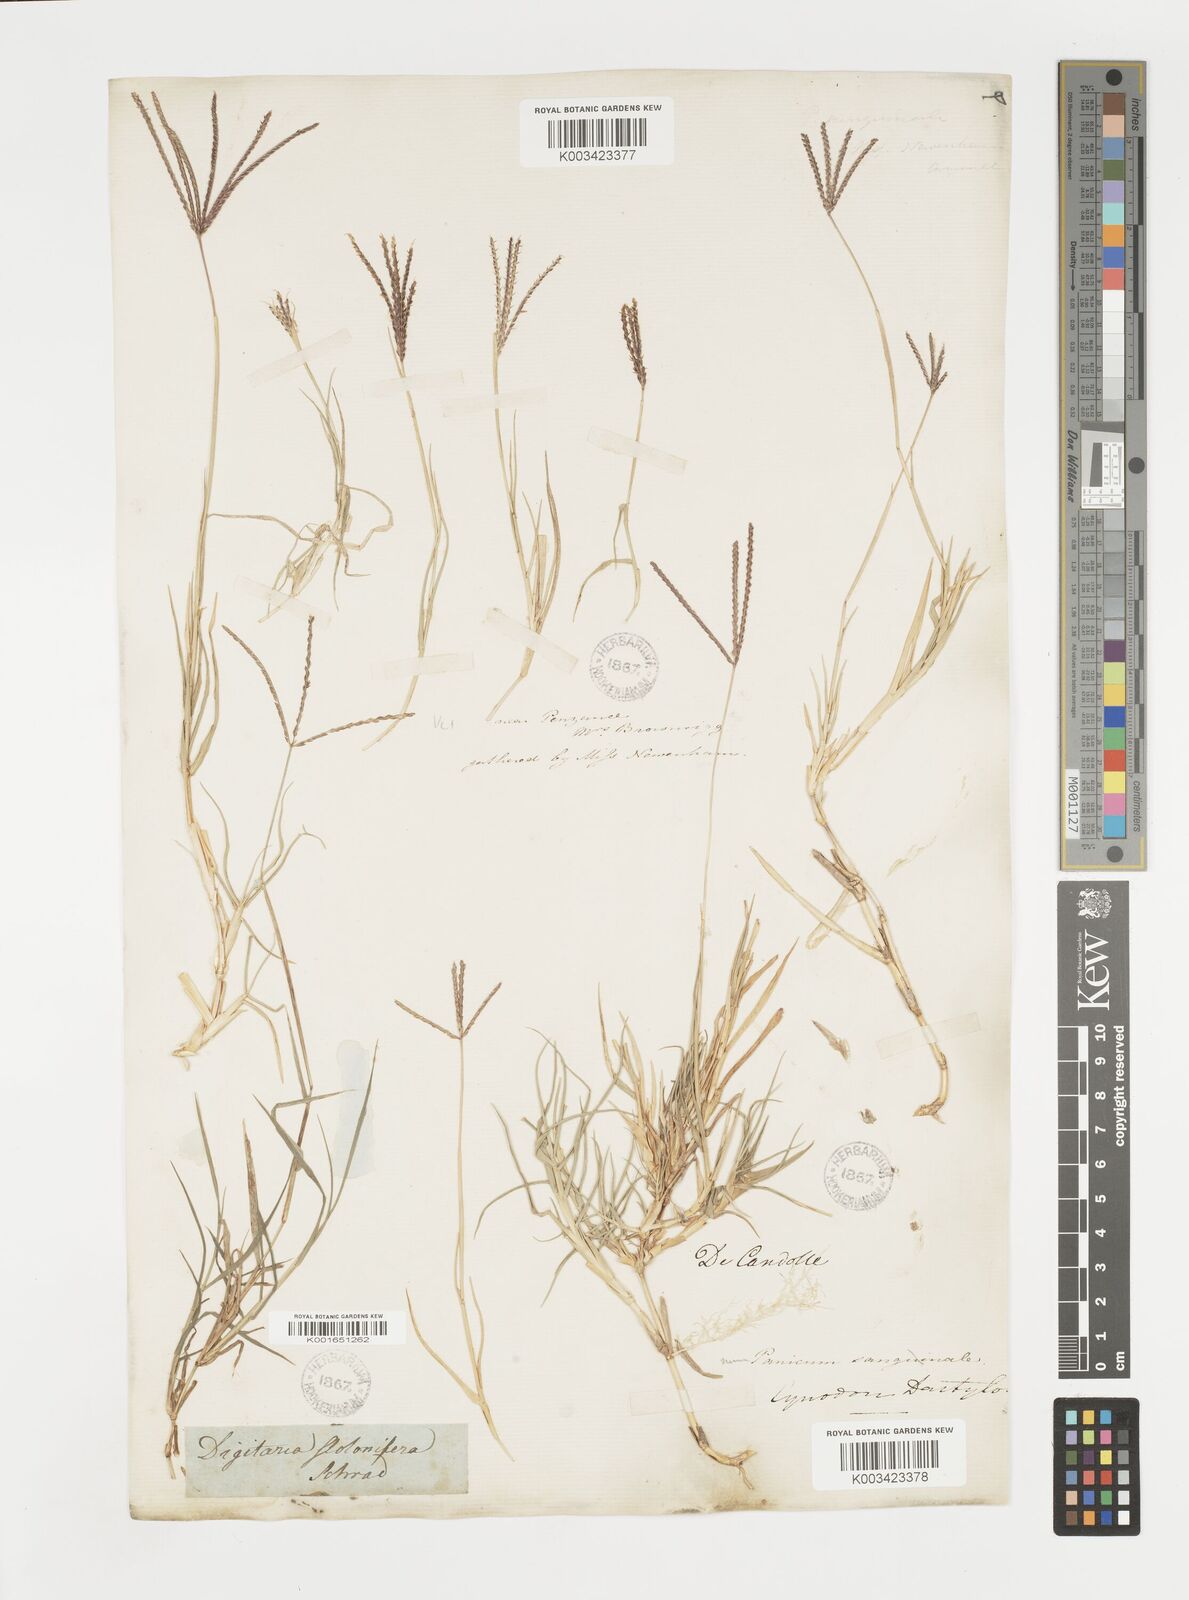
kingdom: Plantae
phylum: Tracheophyta
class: Liliopsida
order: Poales
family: Poaceae
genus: Cynodon
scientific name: Cynodon dactylon
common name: Bermuda grass
